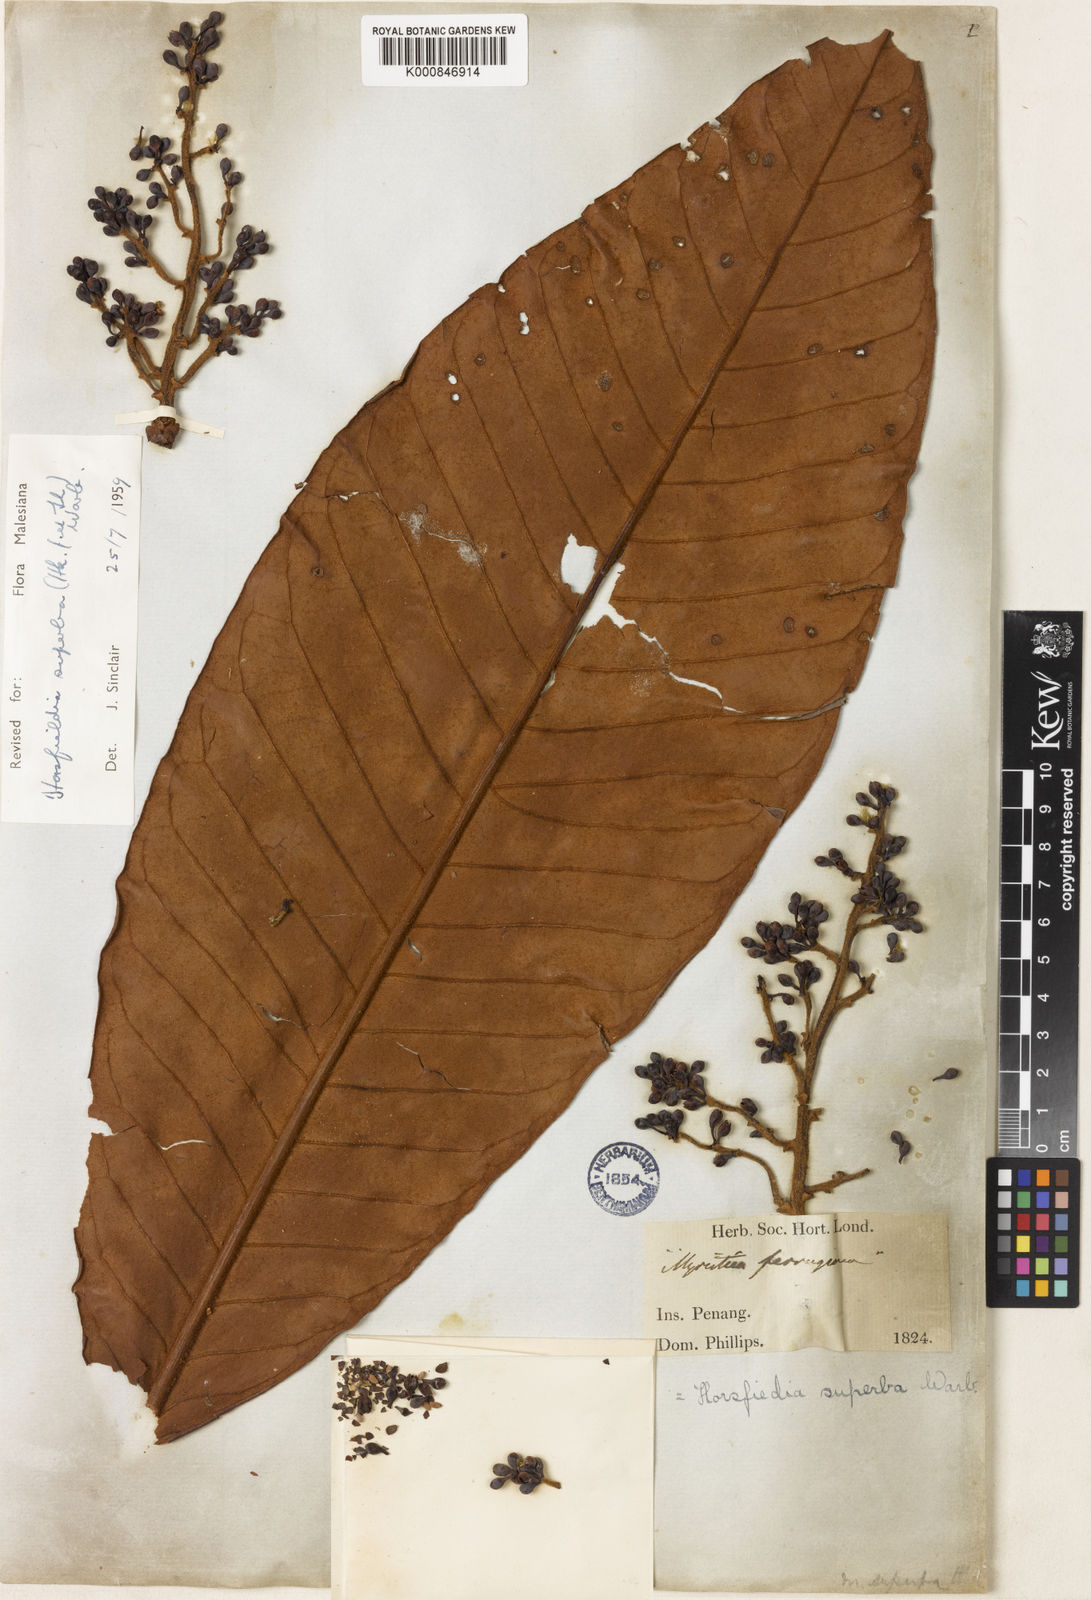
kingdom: Plantae
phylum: Tracheophyta
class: Magnoliopsida
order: Magnoliales
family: Myristicaceae
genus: Horsfieldia
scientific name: Horsfieldia superba
